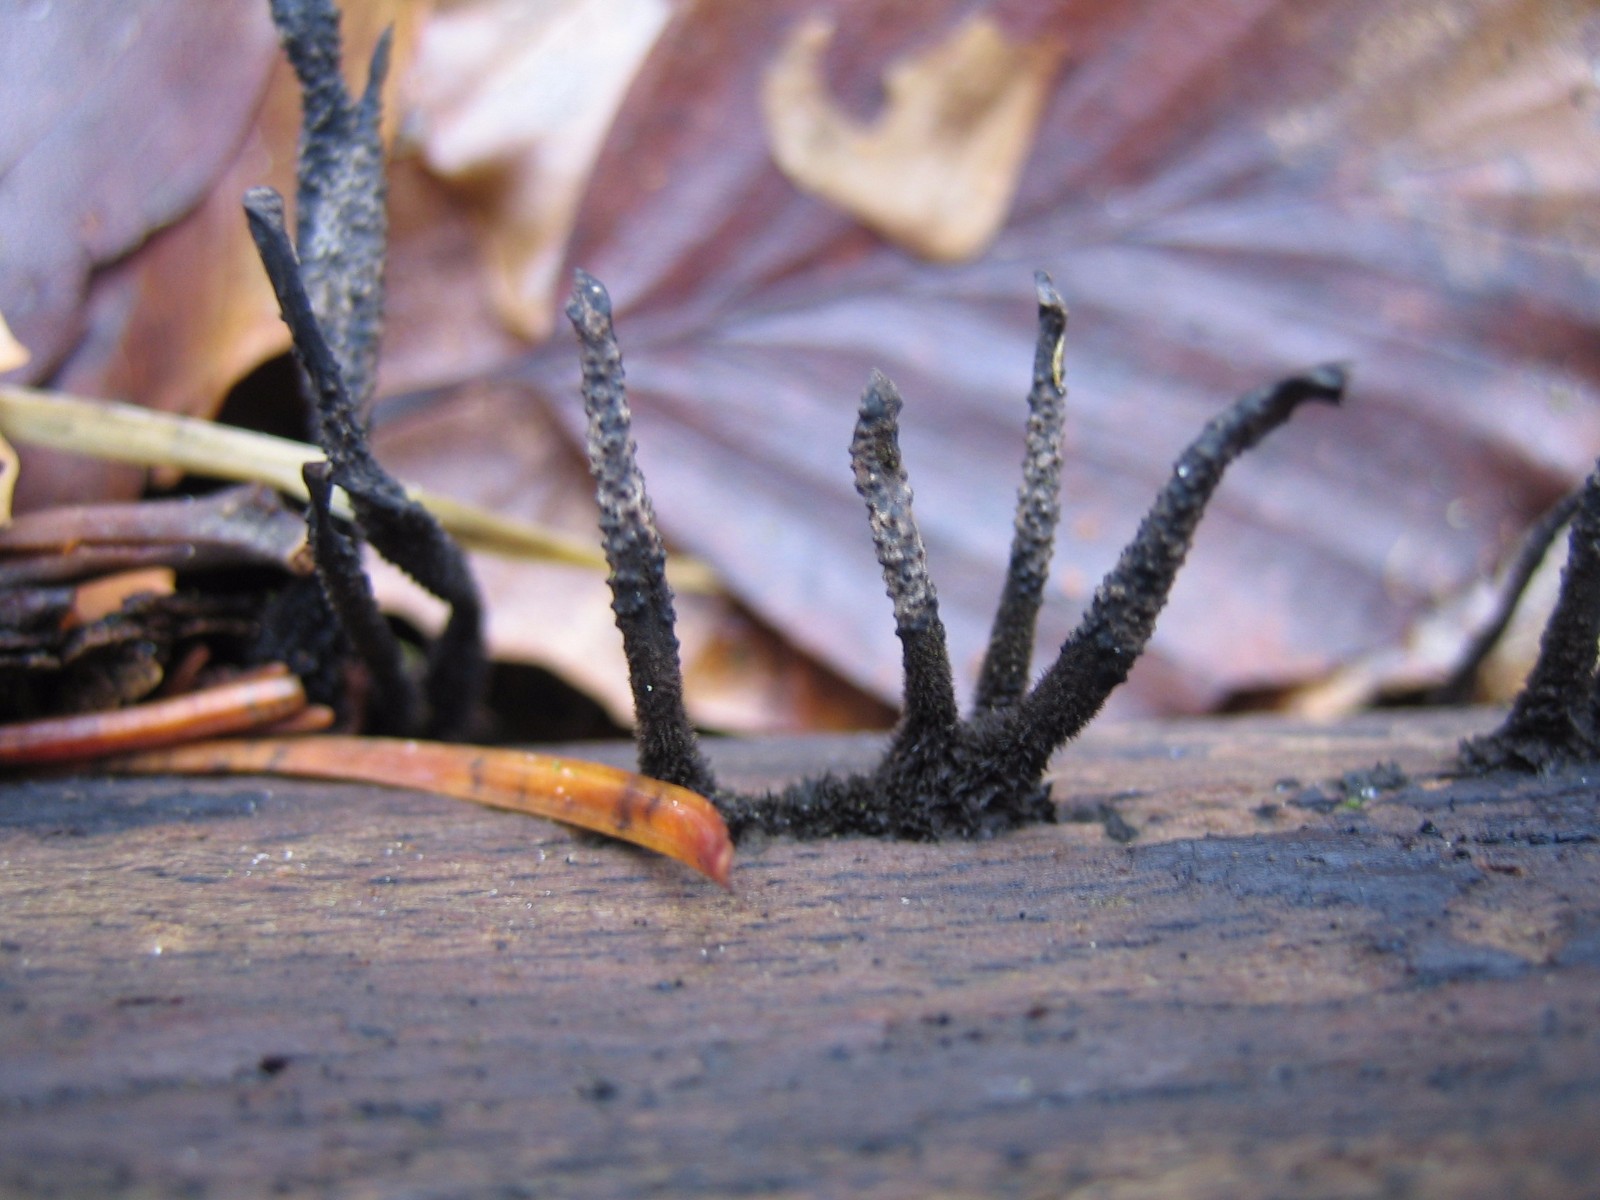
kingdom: Fungi
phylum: Ascomycota
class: Sordariomycetes
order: Xylariales
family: Xylariaceae
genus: Xylaria
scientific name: Xylaria hypoxylon
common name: grenet stødsvamp
